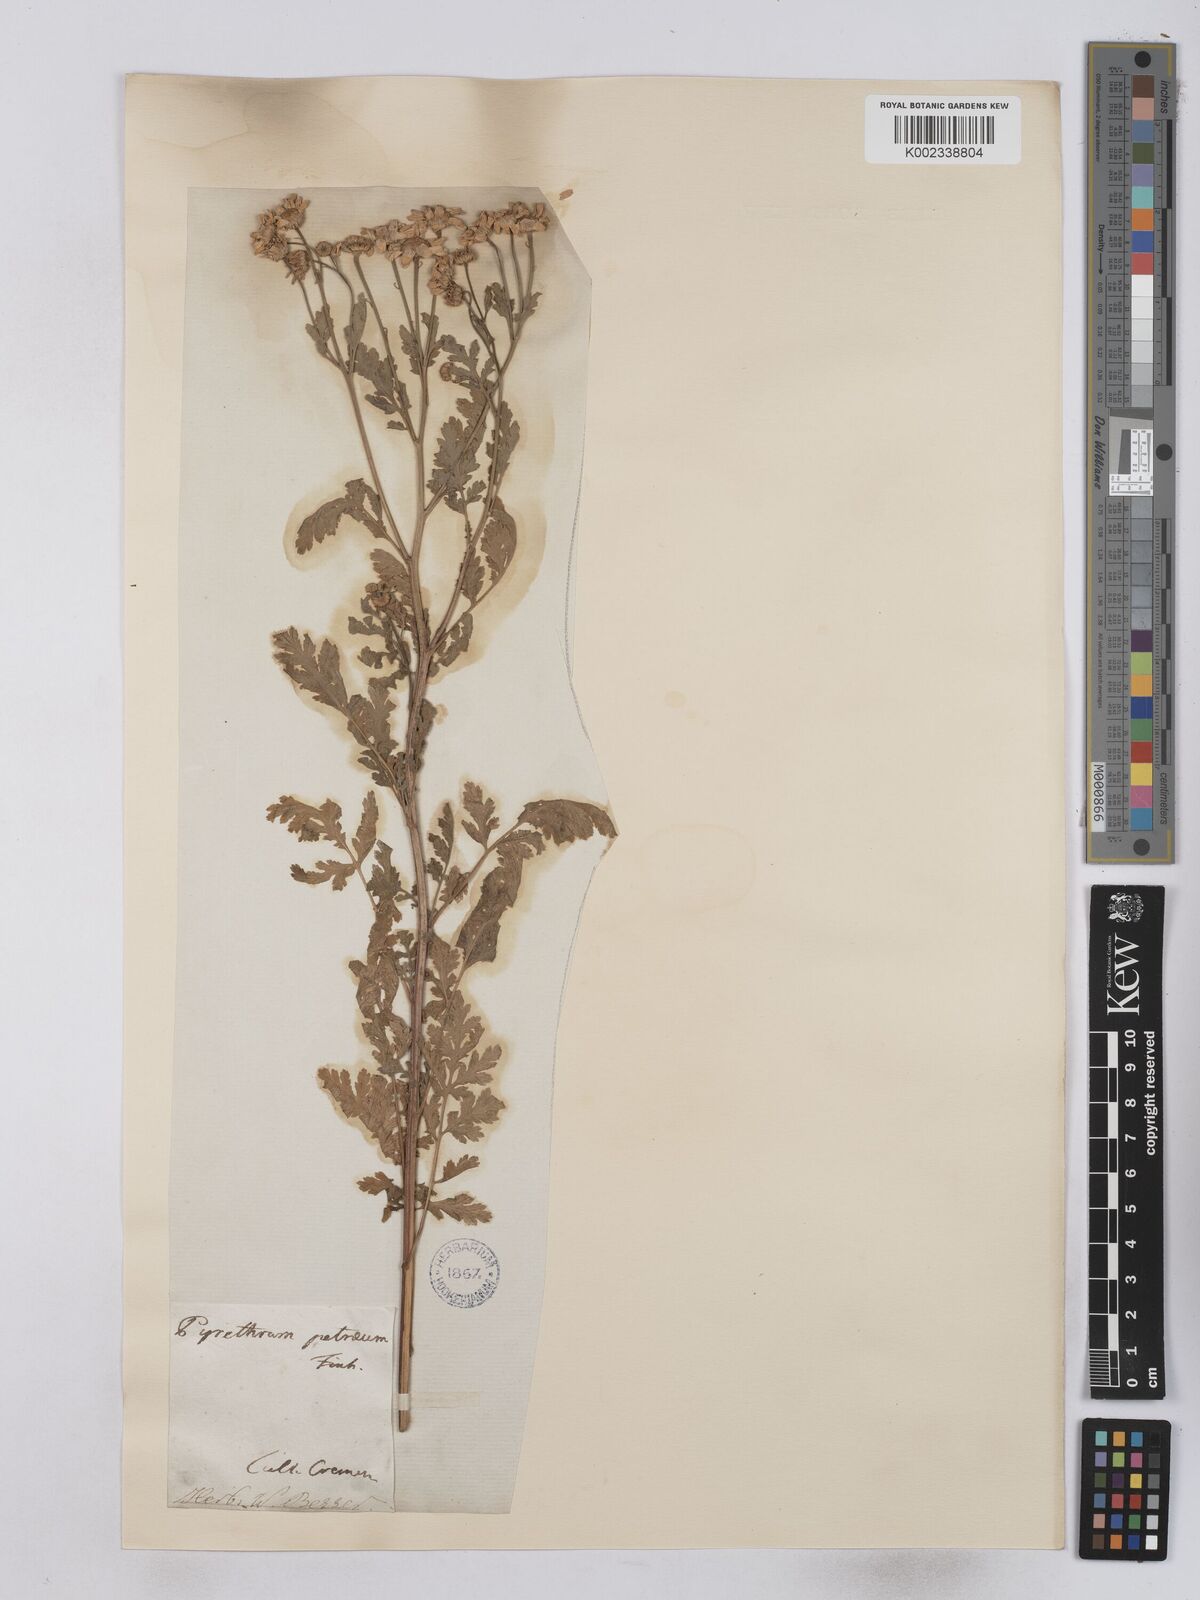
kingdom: Plantae
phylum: Tracheophyta
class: Magnoliopsida
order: Asterales
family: Asteraceae
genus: Tanacetum
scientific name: Tanacetum parthenium
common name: Feverfew
